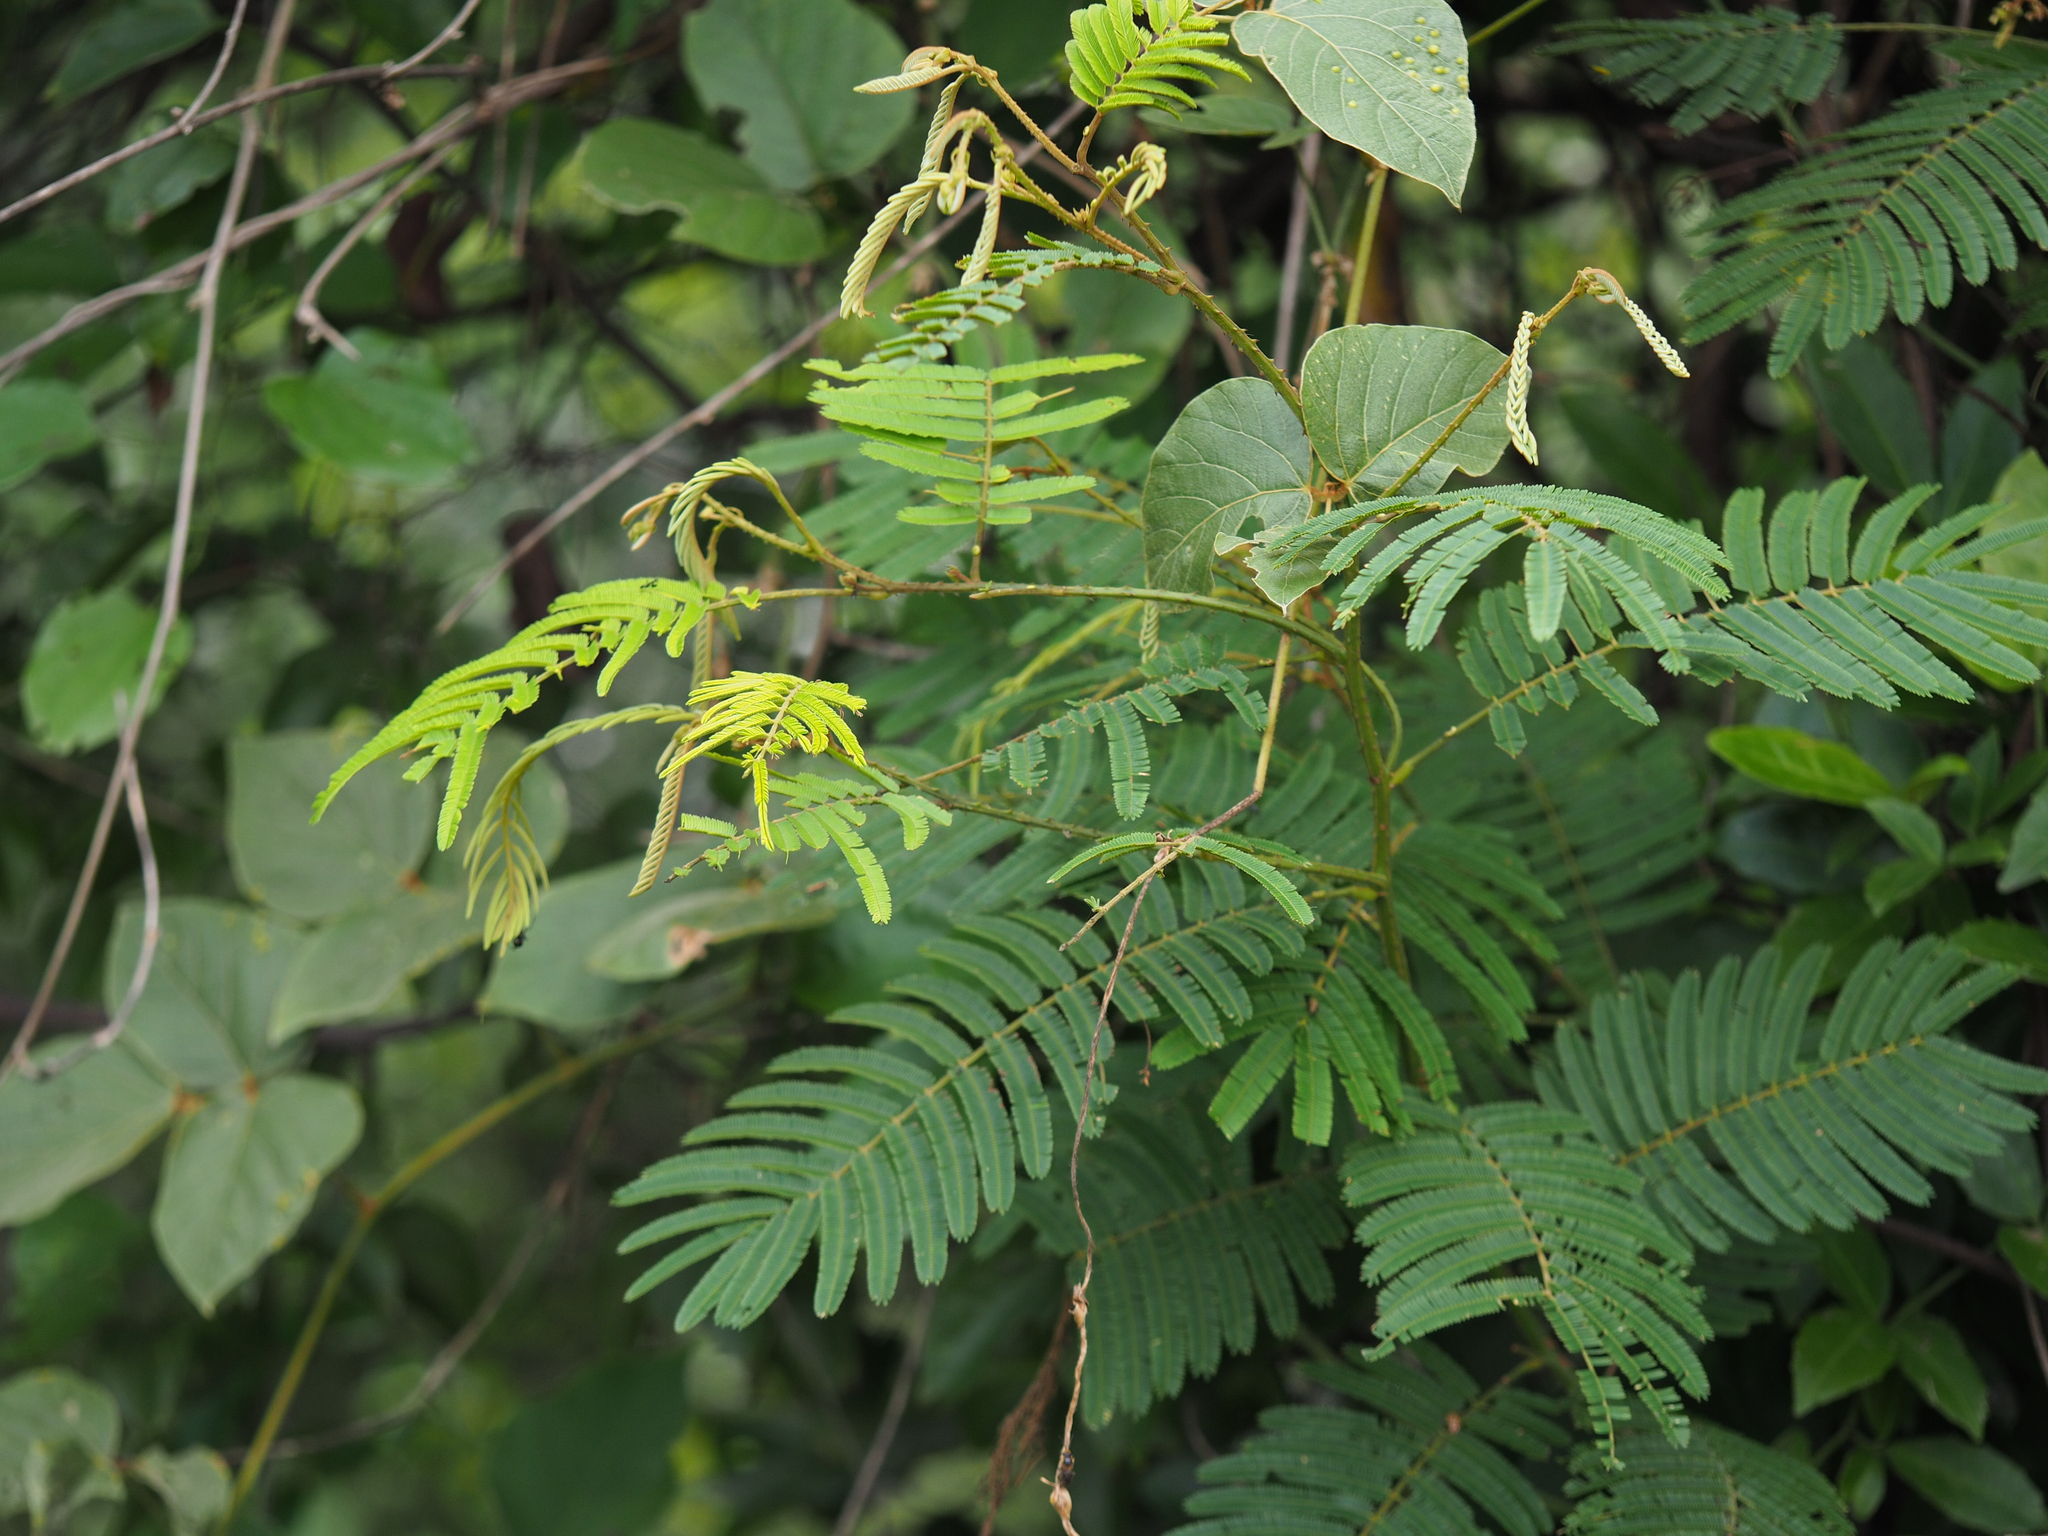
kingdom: Plantae
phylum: Tracheophyta
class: Magnoliopsida
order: Fabales
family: Fabaceae
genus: Senegalia
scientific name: Senegalia caesia
